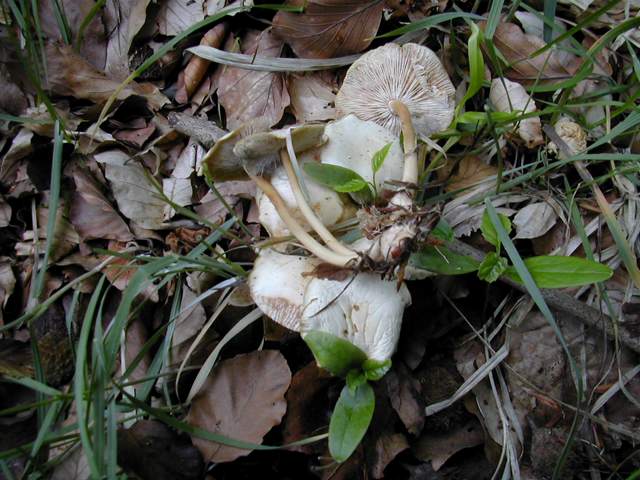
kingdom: Fungi
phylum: Basidiomycota
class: Agaricomycetes
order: Agaricales
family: Omphalotaceae
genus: Gymnopus
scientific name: Gymnopus aquosus
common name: bleg fladhat
